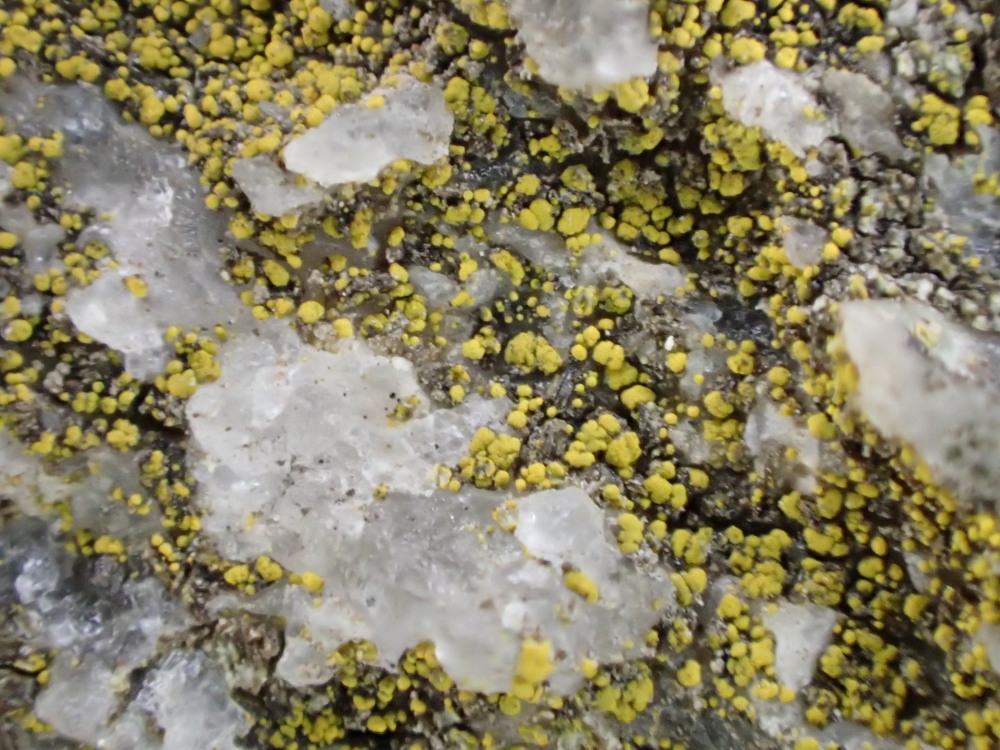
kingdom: Fungi
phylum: Ascomycota
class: Candelariomycetes
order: Candelariales
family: Candelariaceae
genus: Candelariella
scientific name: Candelariella vitellina
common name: almindelig æggeblommelav
